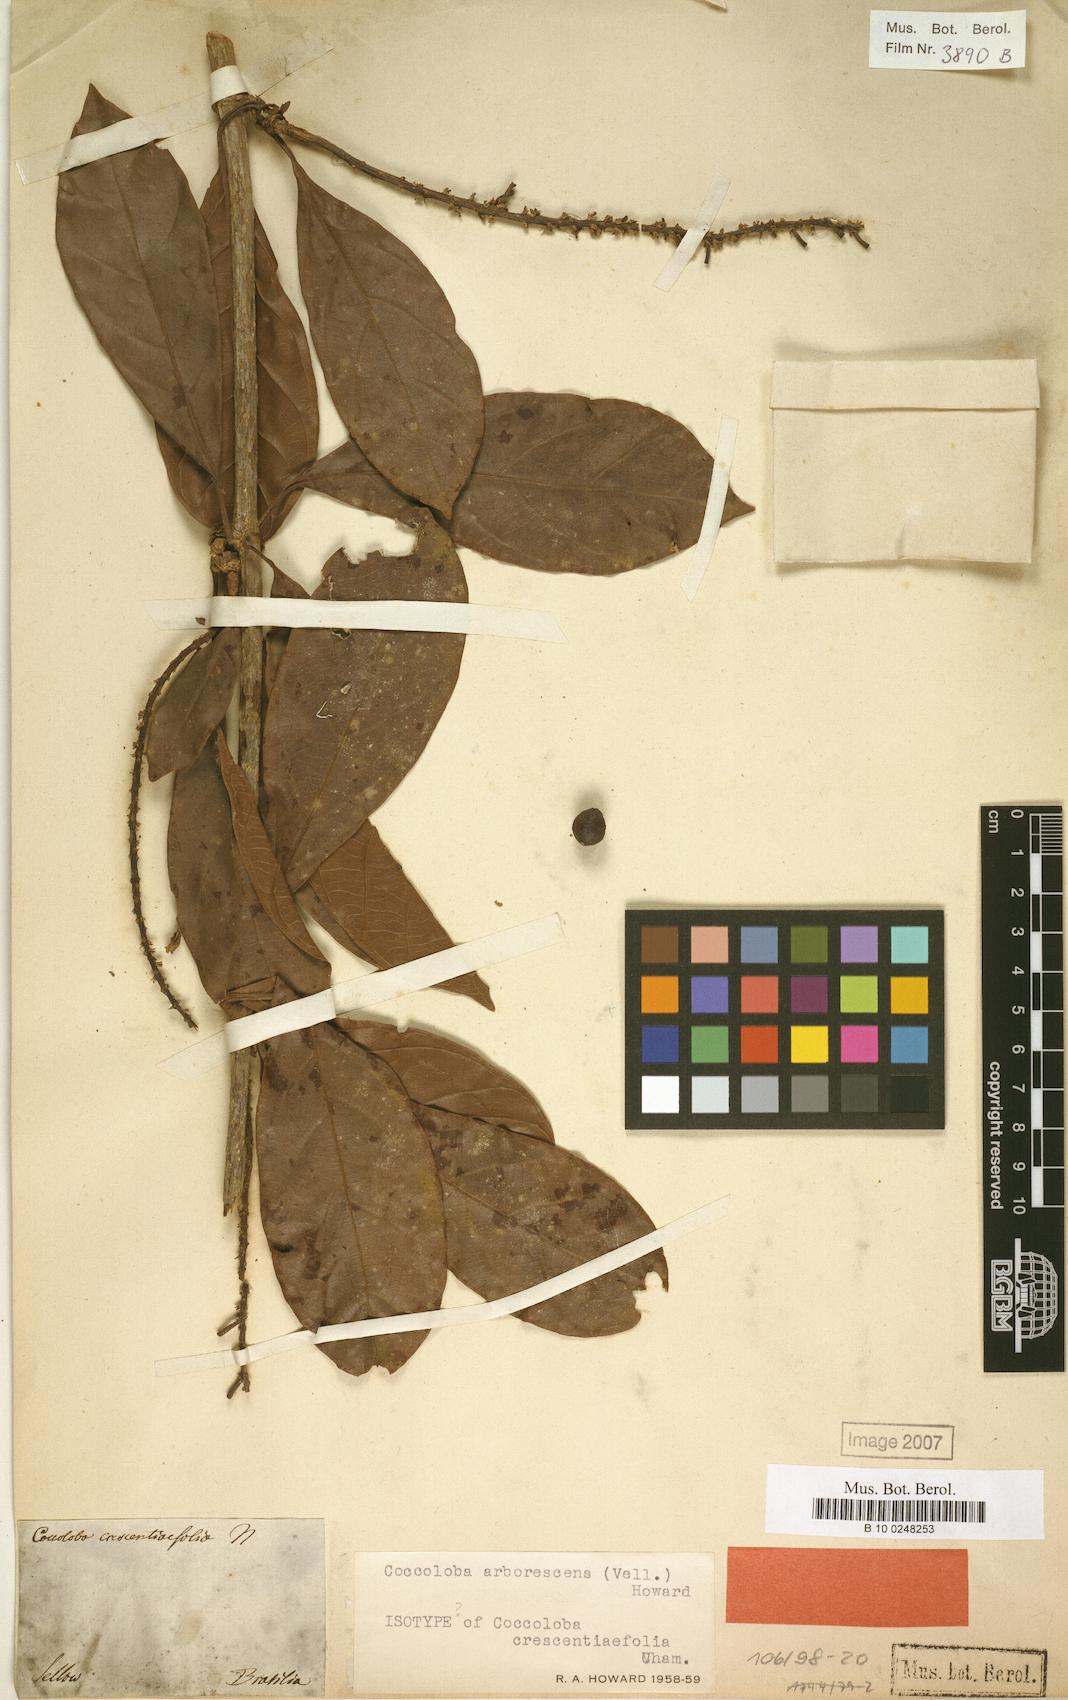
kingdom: Plantae
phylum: Tracheophyta
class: Magnoliopsida
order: Caryophyllales
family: Polygonaceae
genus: Coccoloba
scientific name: Coccoloba arborescens
